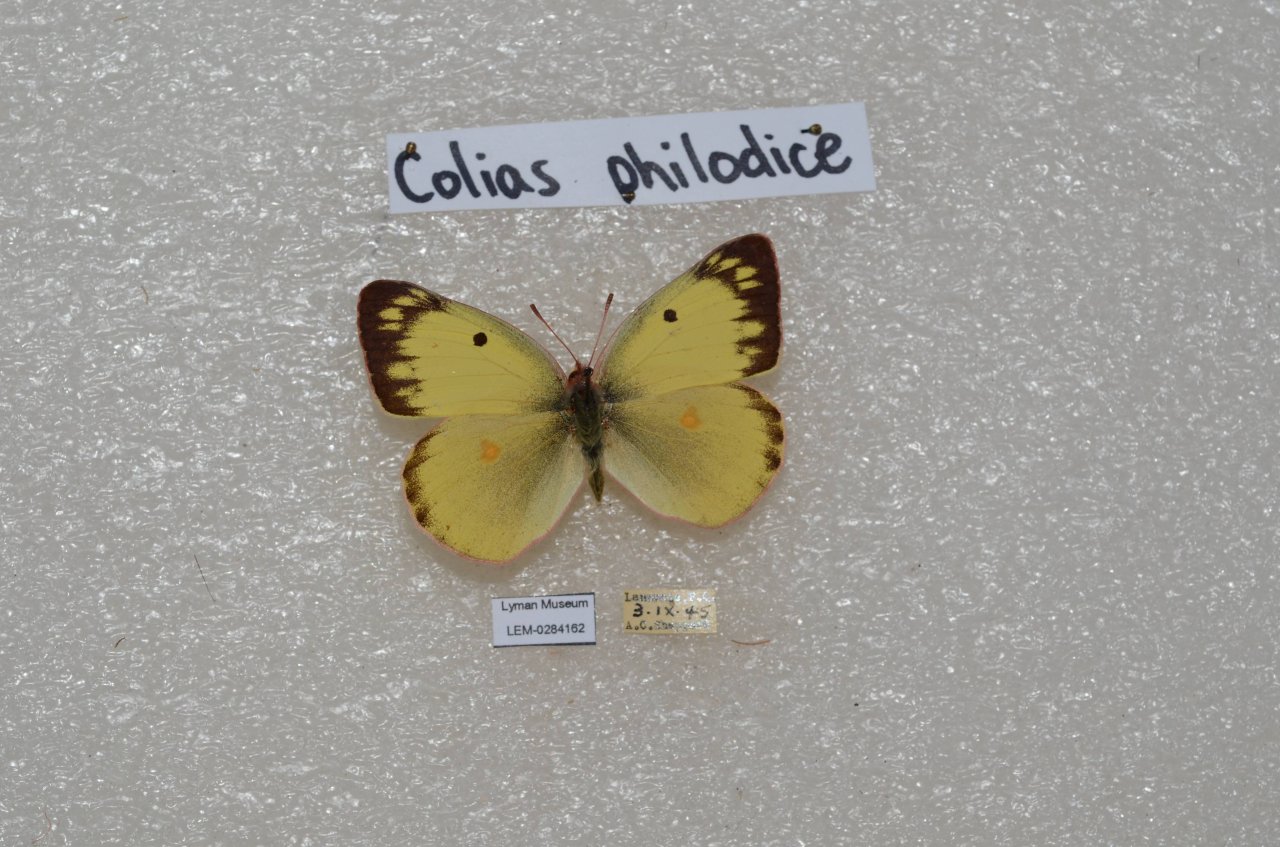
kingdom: Animalia
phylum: Arthropoda
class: Insecta
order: Lepidoptera
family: Pieridae
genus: Colias
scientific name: Colias philodice
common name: Clouded Sulphur
